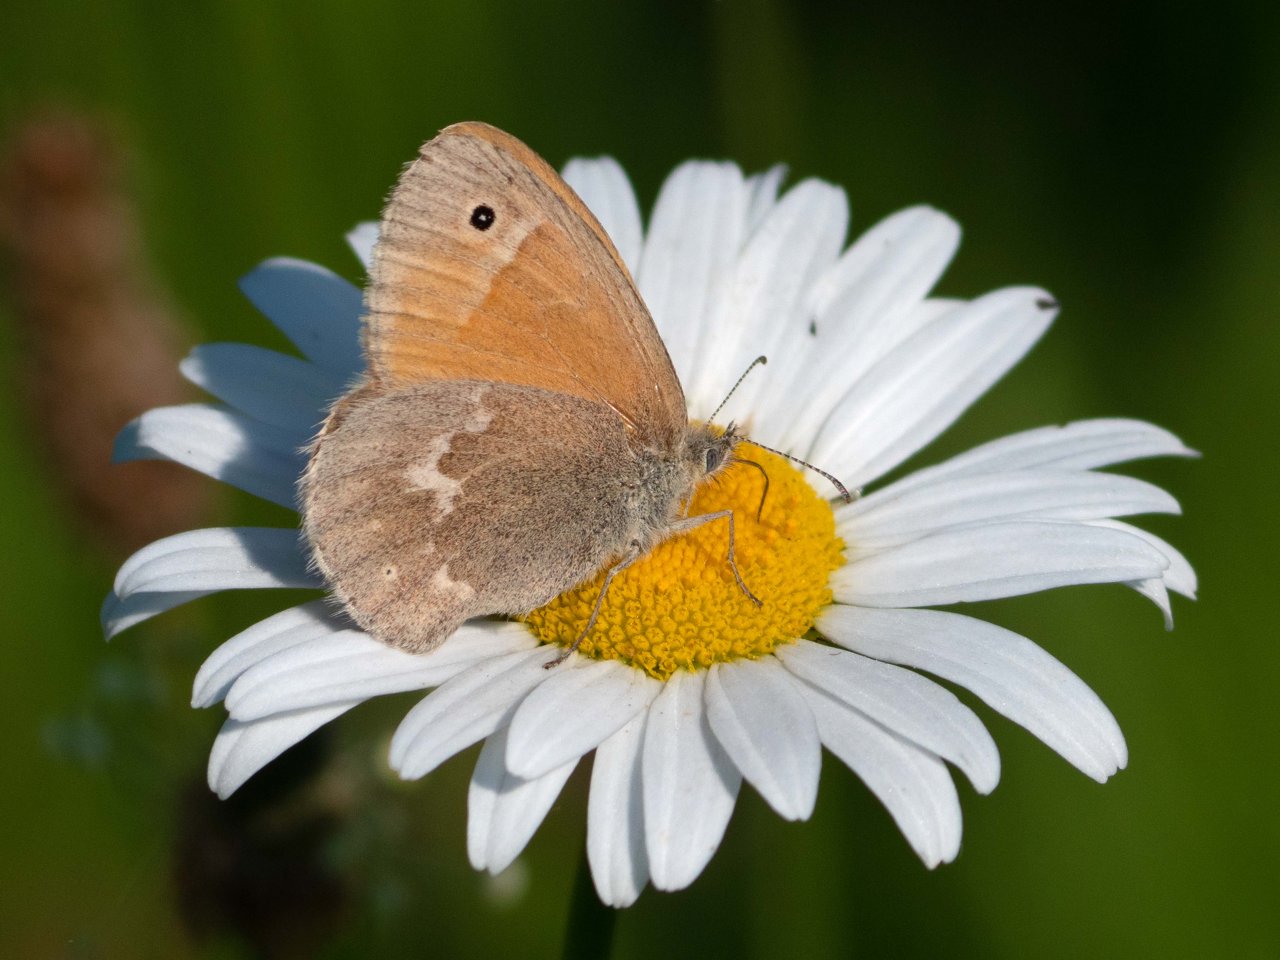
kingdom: Animalia
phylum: Arthropoda
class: Insecta
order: Lepidoptera
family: Nymphalidae
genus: Coenonympha
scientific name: Coenonympha tullia
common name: Large Heath
